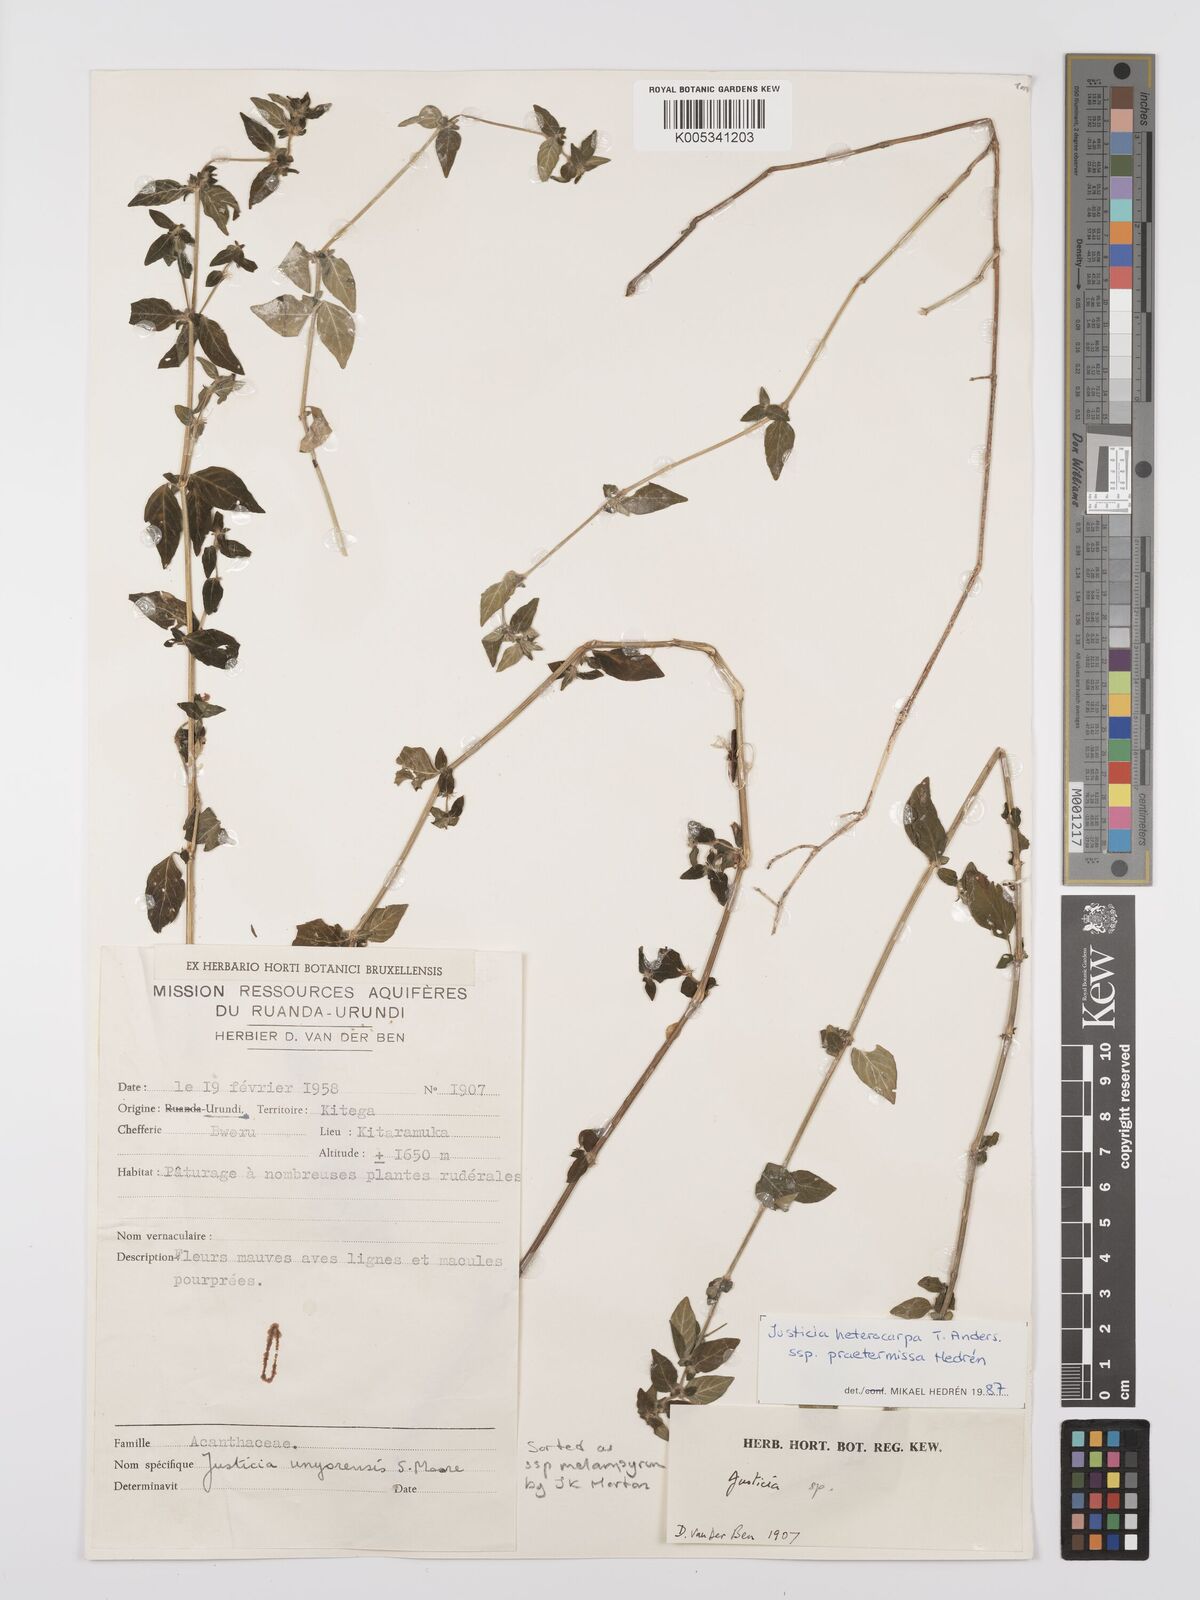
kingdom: Plantae
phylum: Tracheophyta
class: Magnoliopsida
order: Lamiales
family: Acanthaceae
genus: Justicia
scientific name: Justicia heterocarpa
